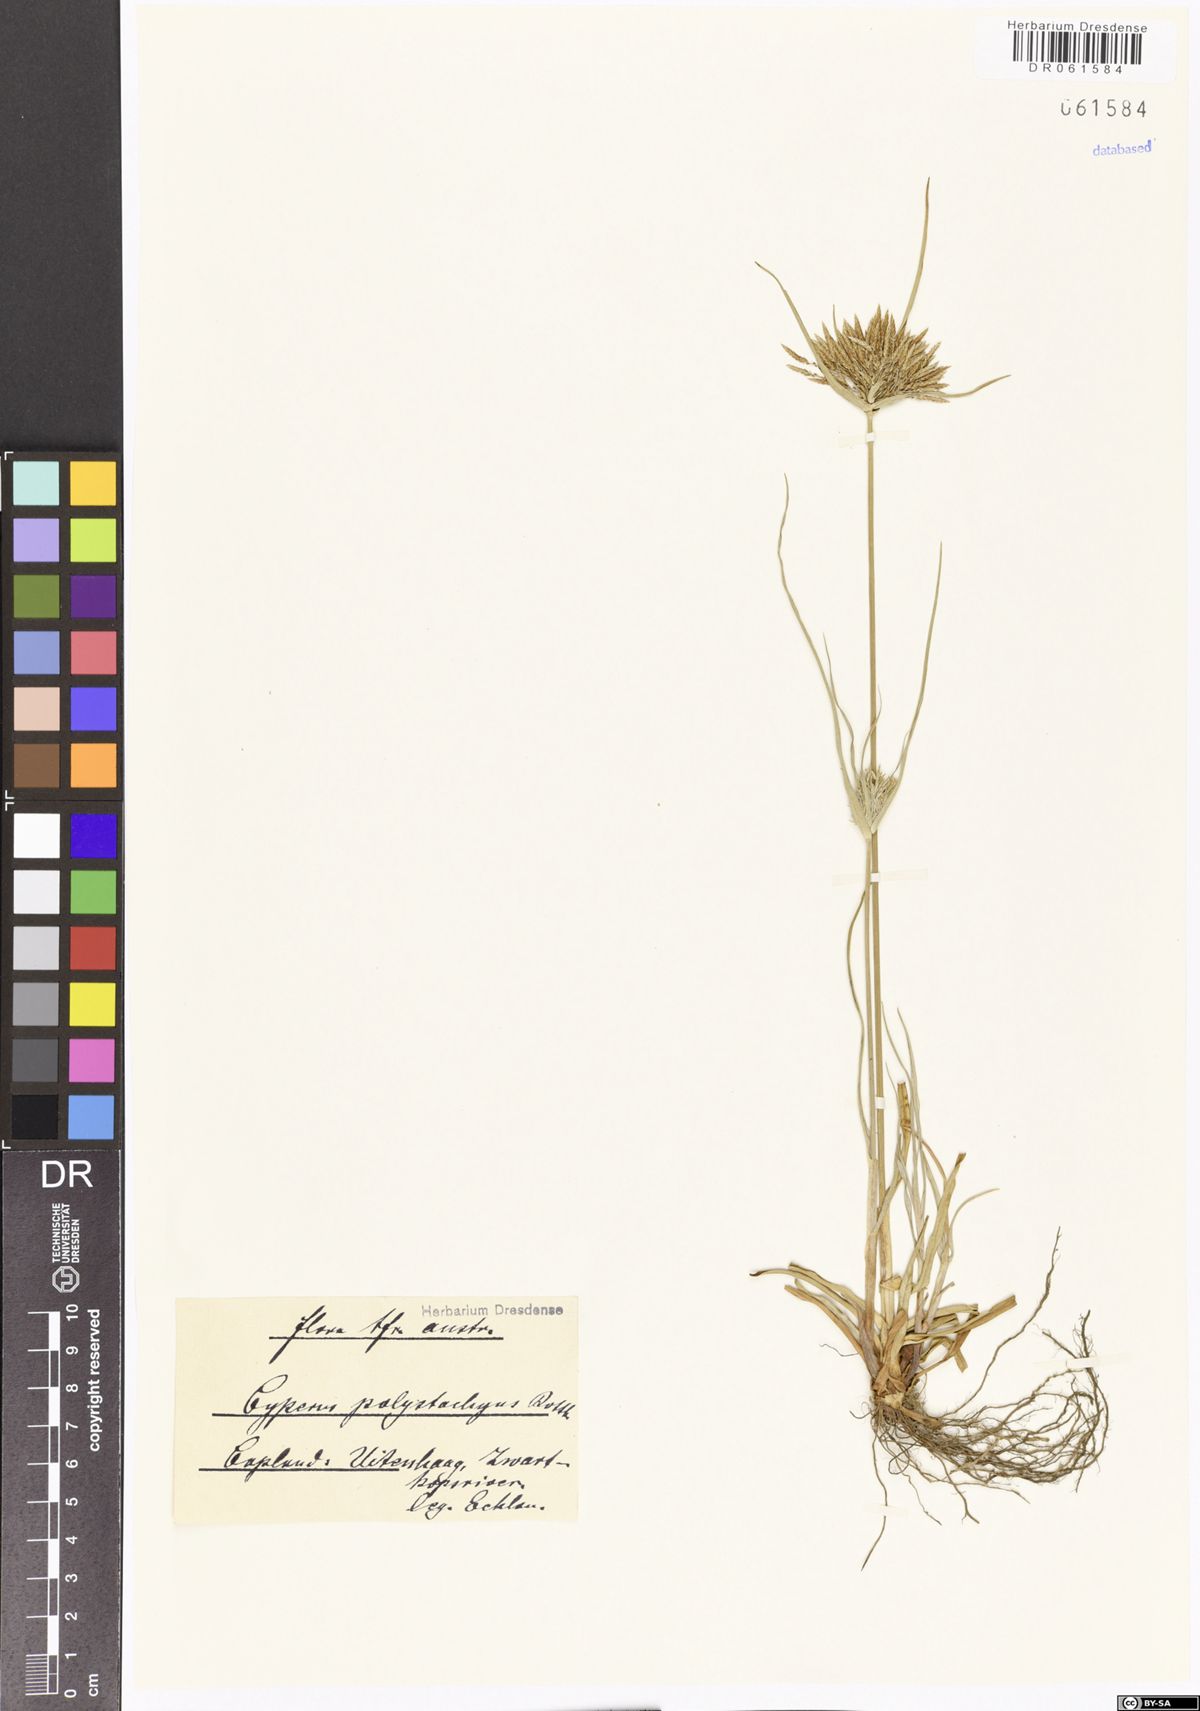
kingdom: Plantae
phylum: Tracheophyta
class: Liliopsida
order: Poales
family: Cyperaceae
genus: Cyperus
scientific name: Cyperus polystachyos
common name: Bunchy flat sedge
